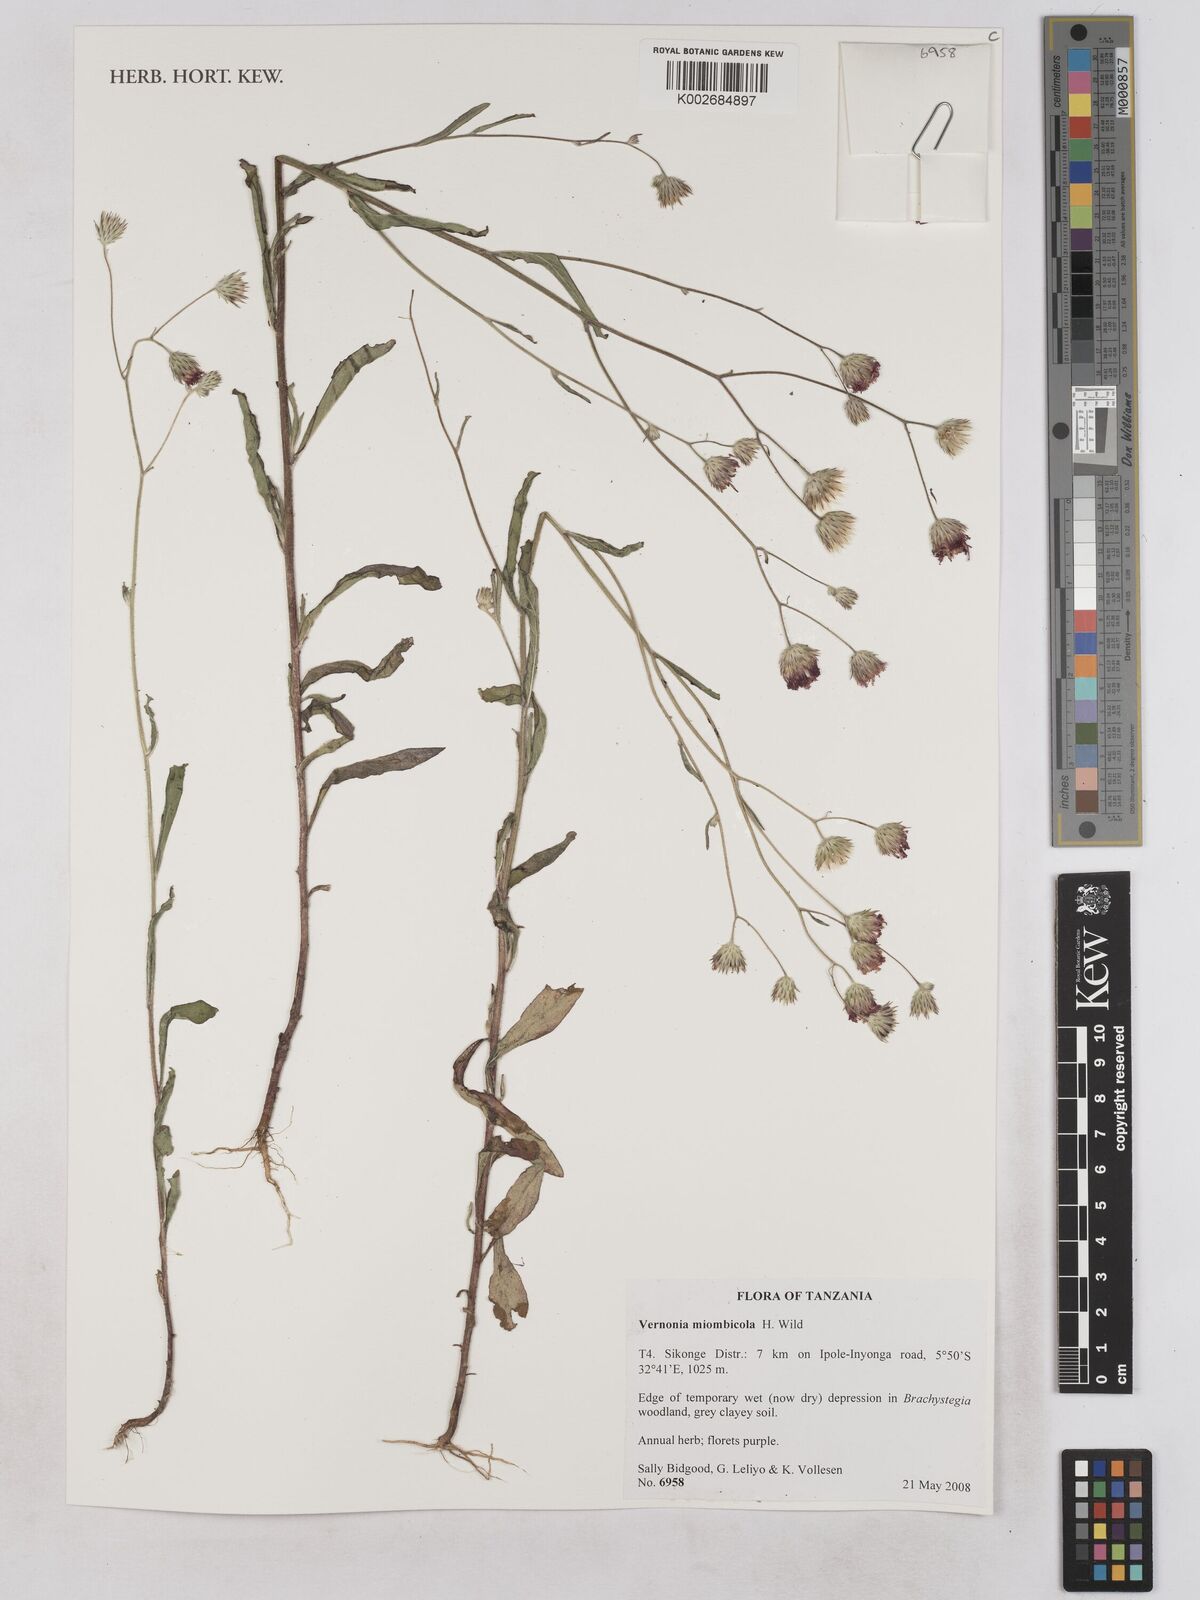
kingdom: Plantae
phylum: Tracheophyta
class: Magnoliopsida
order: Asterales
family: Asteraceae
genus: Vernonia
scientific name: Vernonia miombicola
